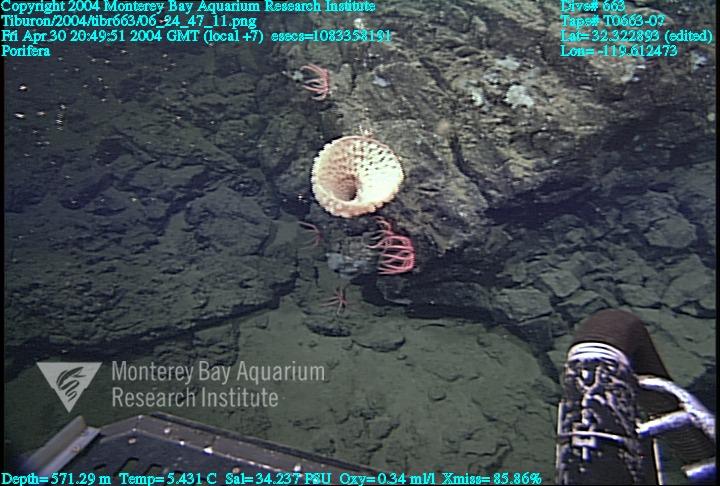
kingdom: Animalia
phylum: Porifera
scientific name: Porifera
